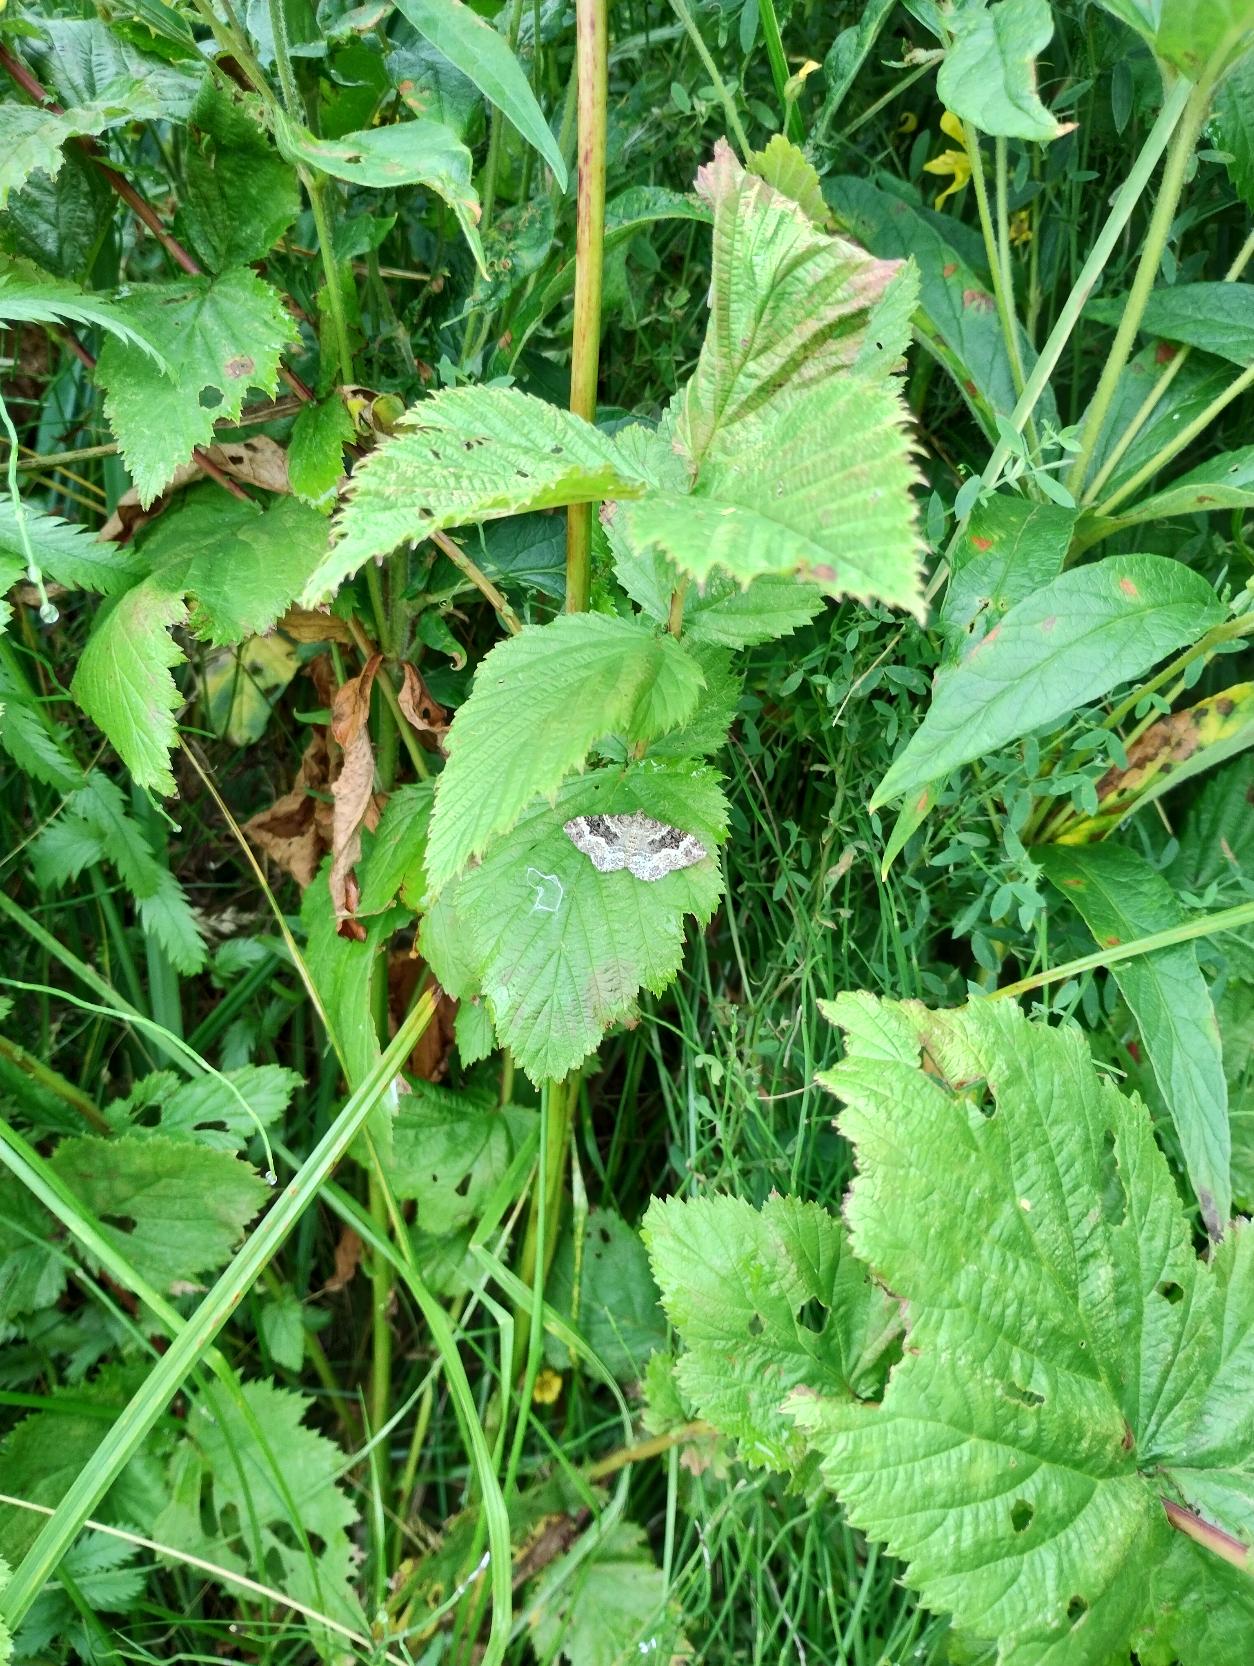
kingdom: Animalia
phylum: Arthropoda
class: Insecta
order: Lepidoptera
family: Geometridae
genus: Epirrhoe
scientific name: Epirrhoe alternata
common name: Almindelig bladmåler
